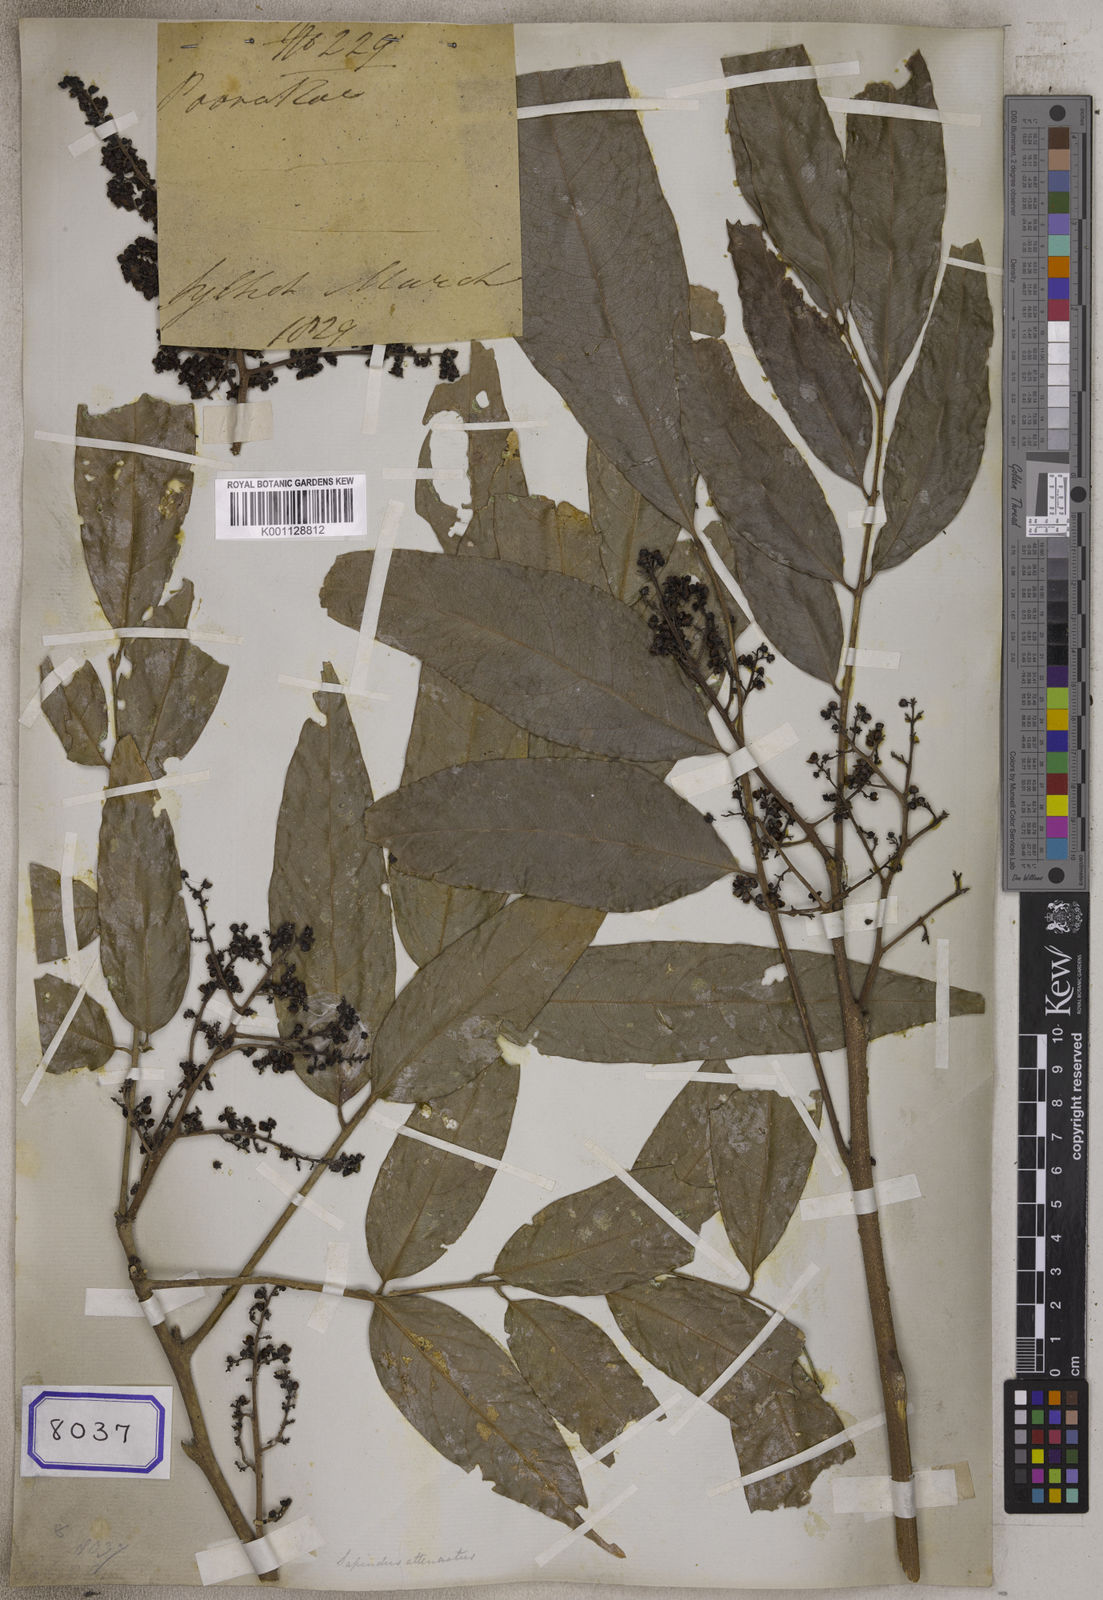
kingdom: Plantae
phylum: Tracheophyta
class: Magnoliopsida
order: Sapindales
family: Sapindaceae
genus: Sapindus
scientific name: Sapindus
